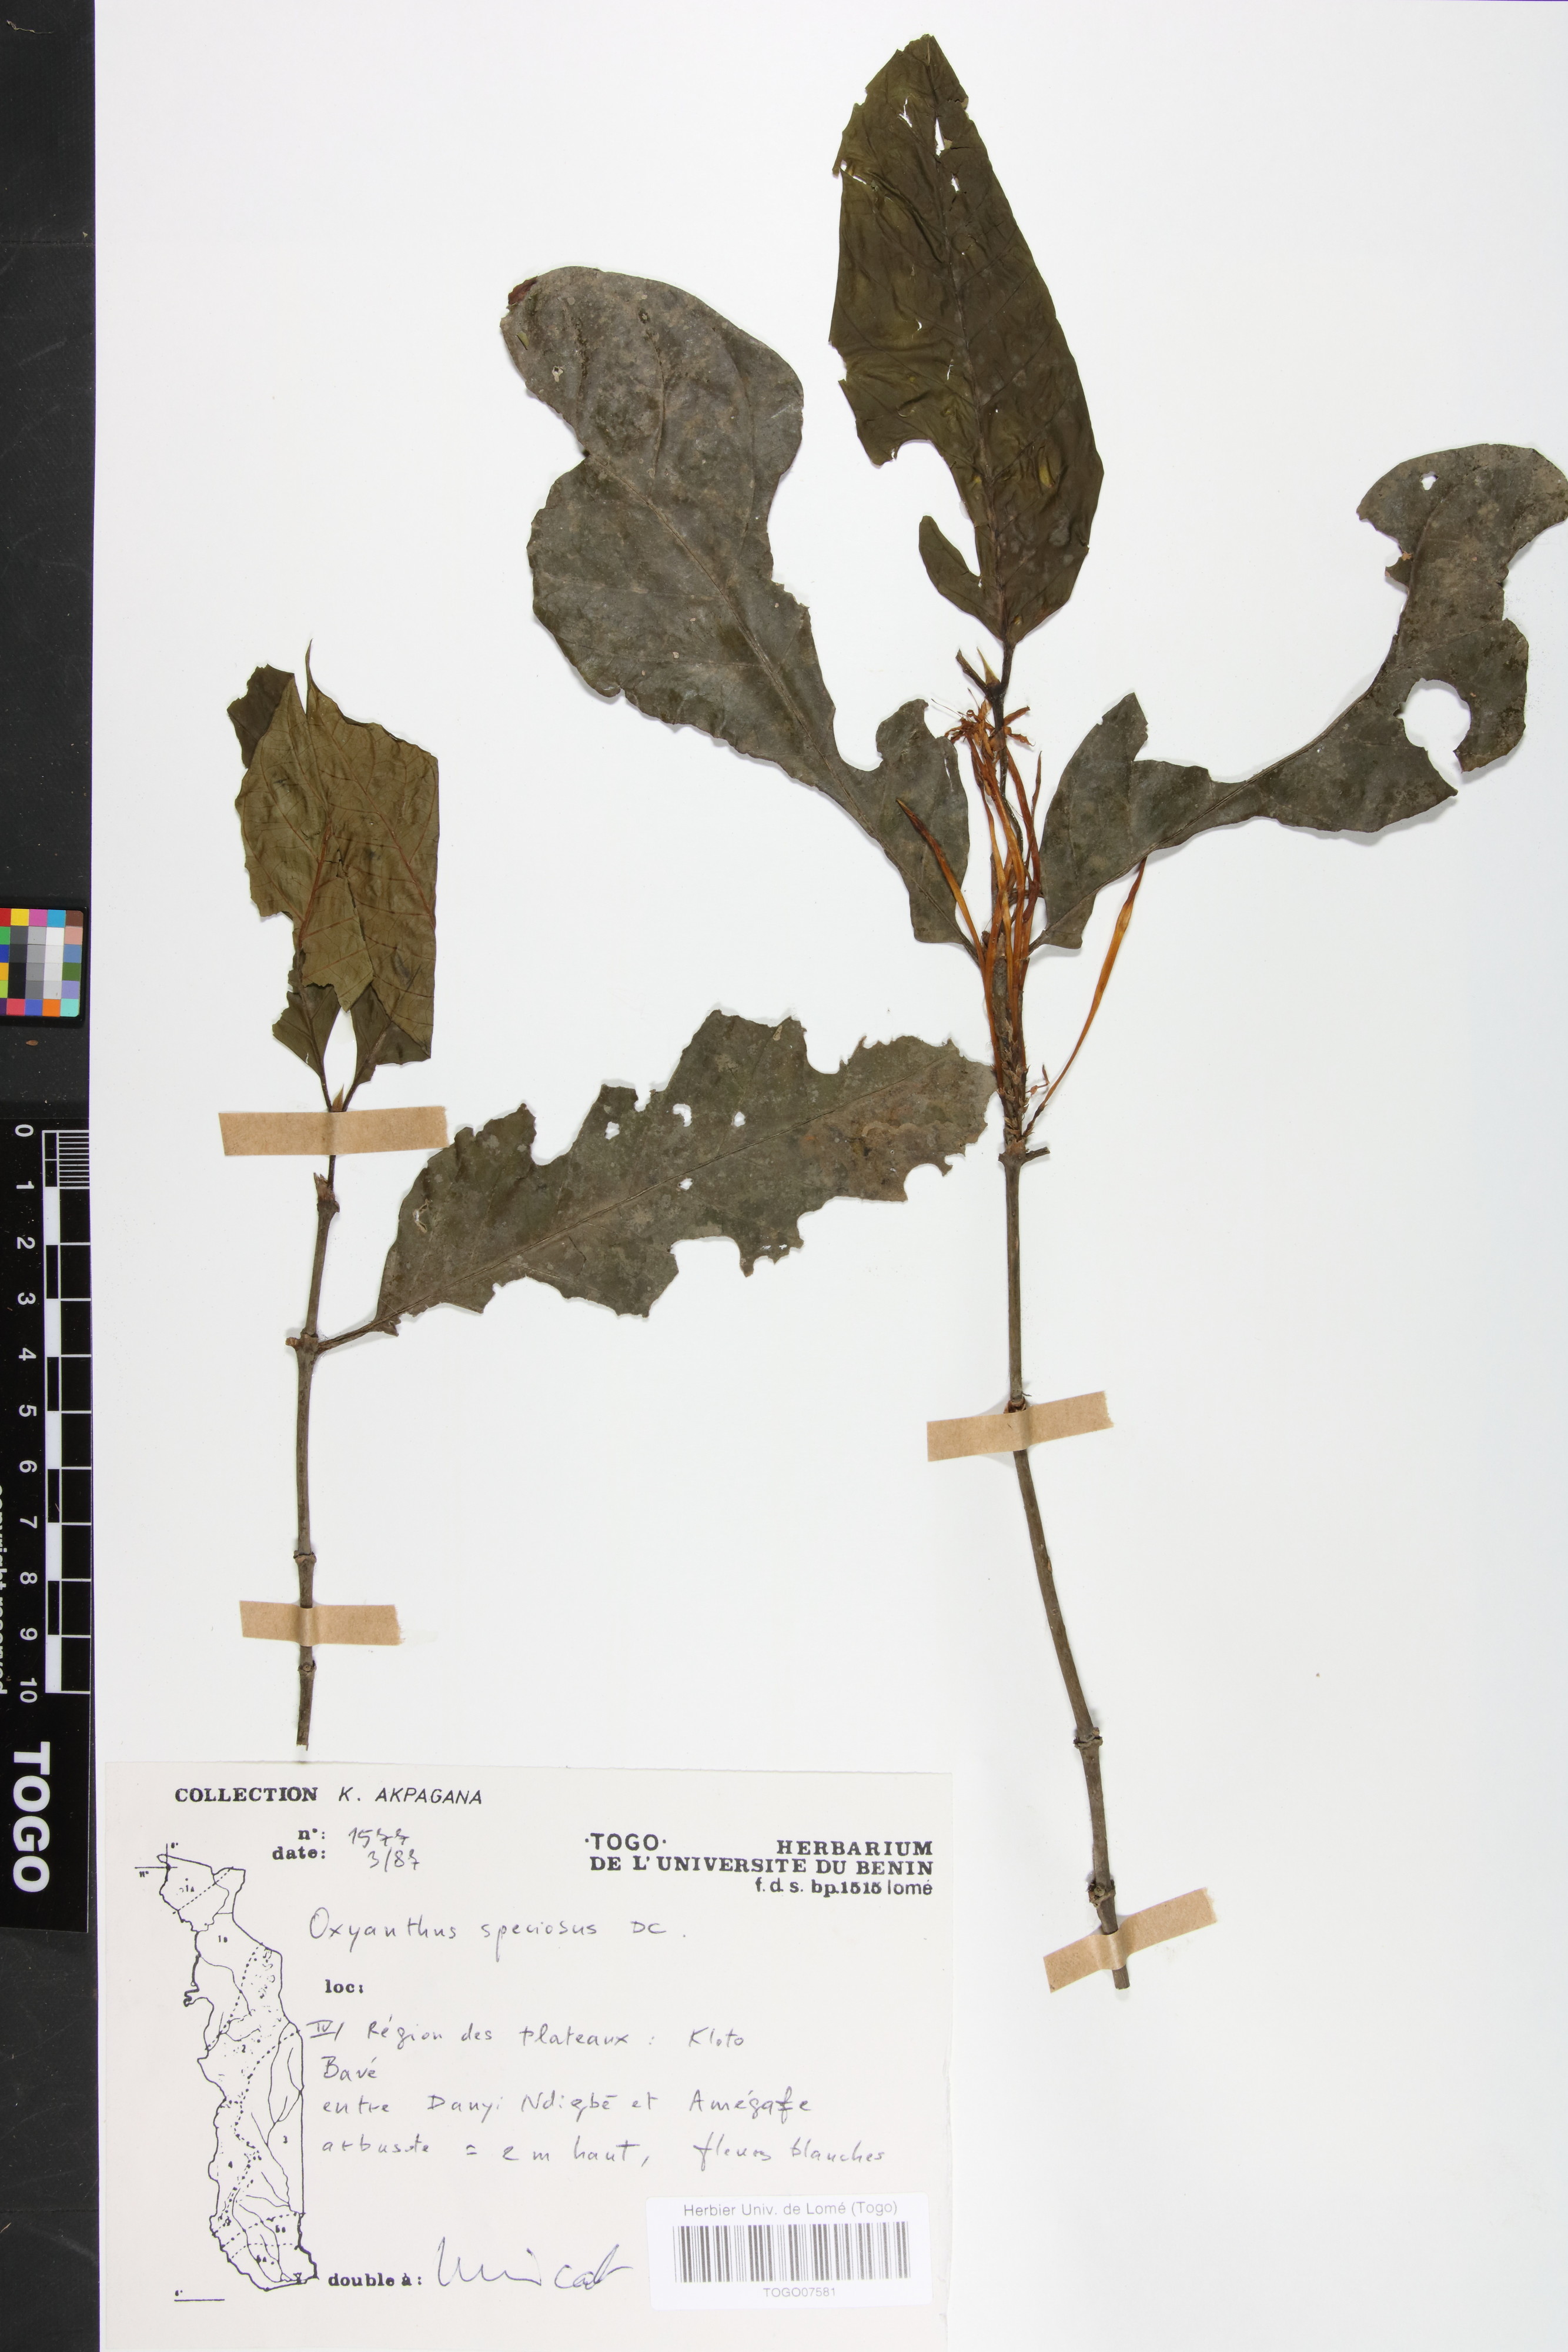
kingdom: Plantae
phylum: Tracheophyta
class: Magnoliopsida
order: Gentianales
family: Rubiaceae
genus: Oxyanthus
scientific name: Oxyanthus speciosus
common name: Whipstick loquat
